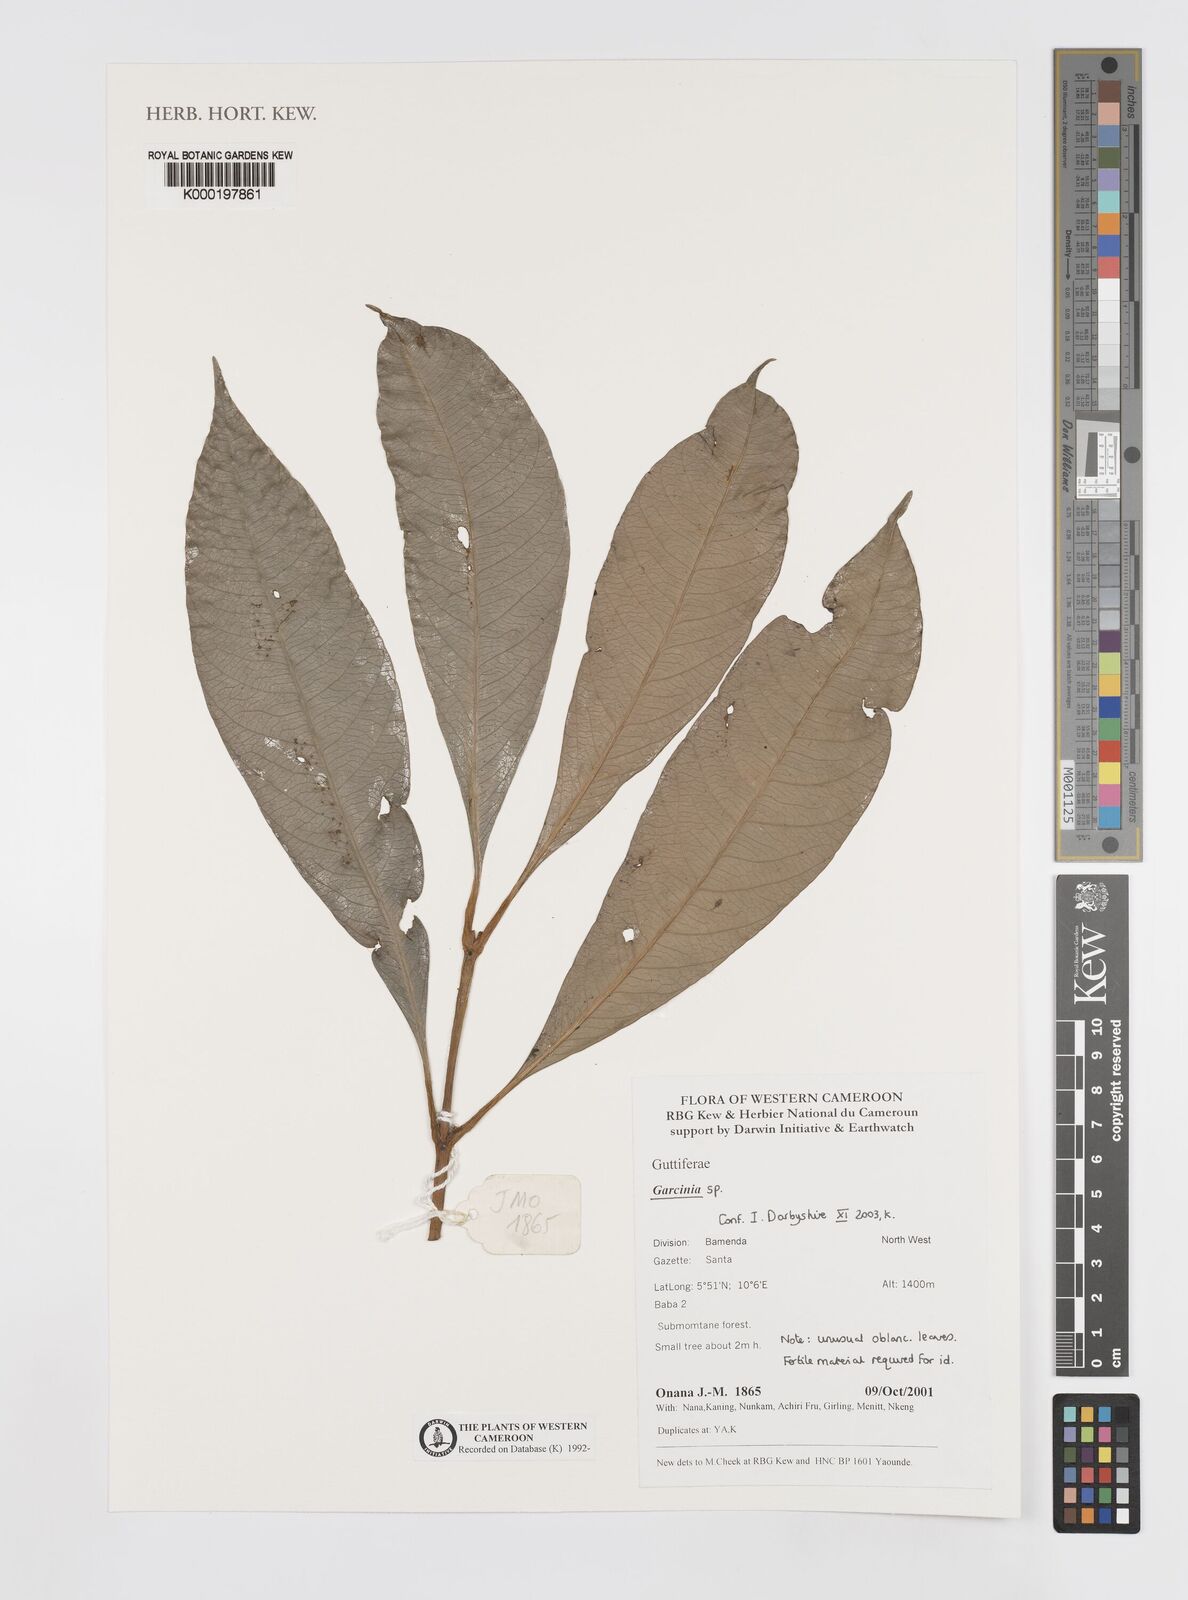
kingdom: Plantae
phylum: Tracheophyta
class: Magnoliopsida
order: Malpighiales
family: Clusiaceae
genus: Garcinia
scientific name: Garcinia
